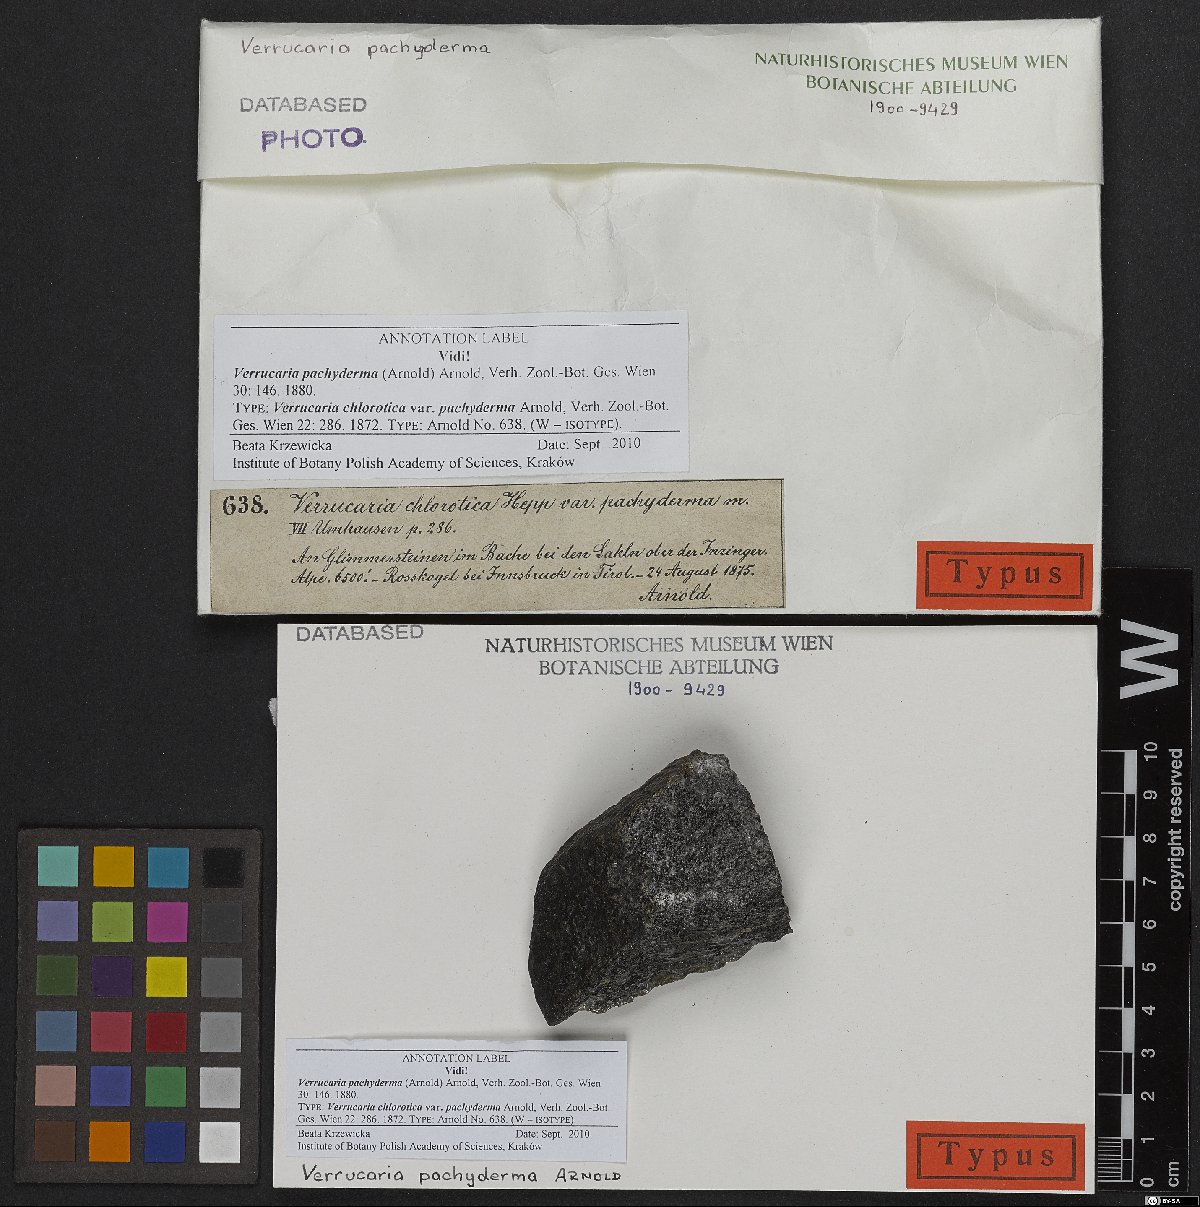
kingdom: Fungi
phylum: Ascomycota
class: Eurotiomycetes
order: Verrucariales
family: Verrucariaceae
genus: Verrucaria
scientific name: Verrucaria pachyderma
